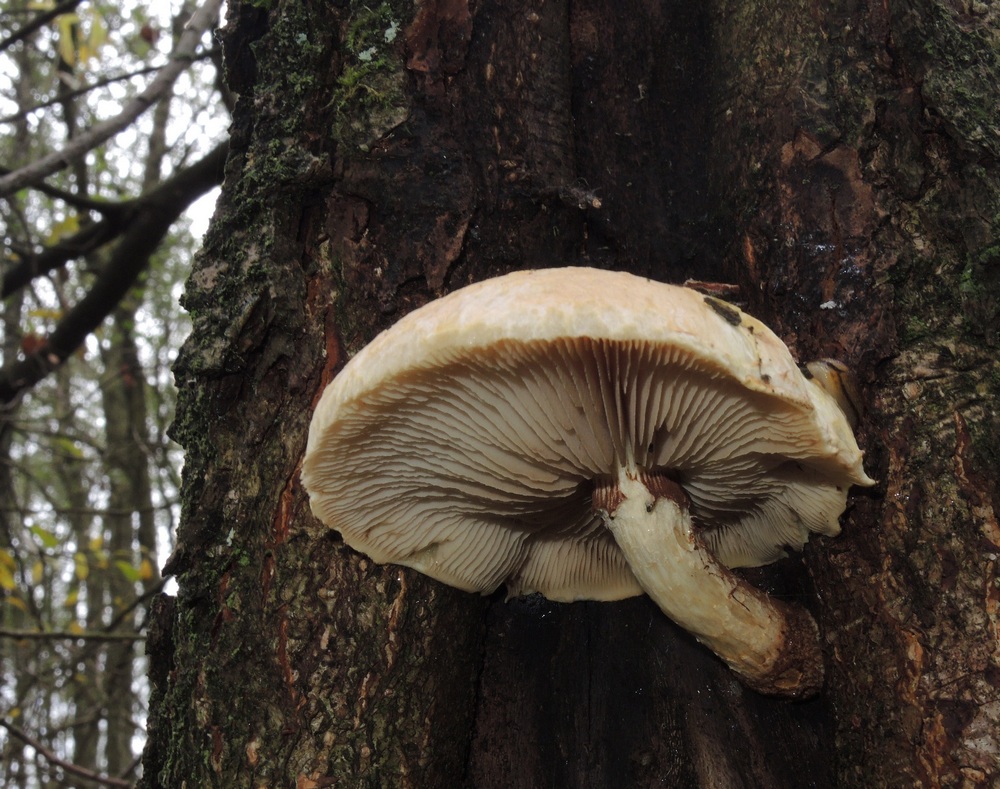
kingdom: Fungi
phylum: Basidiomycota
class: Agaricomycetes
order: Agaricales
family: Strophariaceae
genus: Pholiota
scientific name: Pholiota heteroclita
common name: duftende kæmpeskælhat
